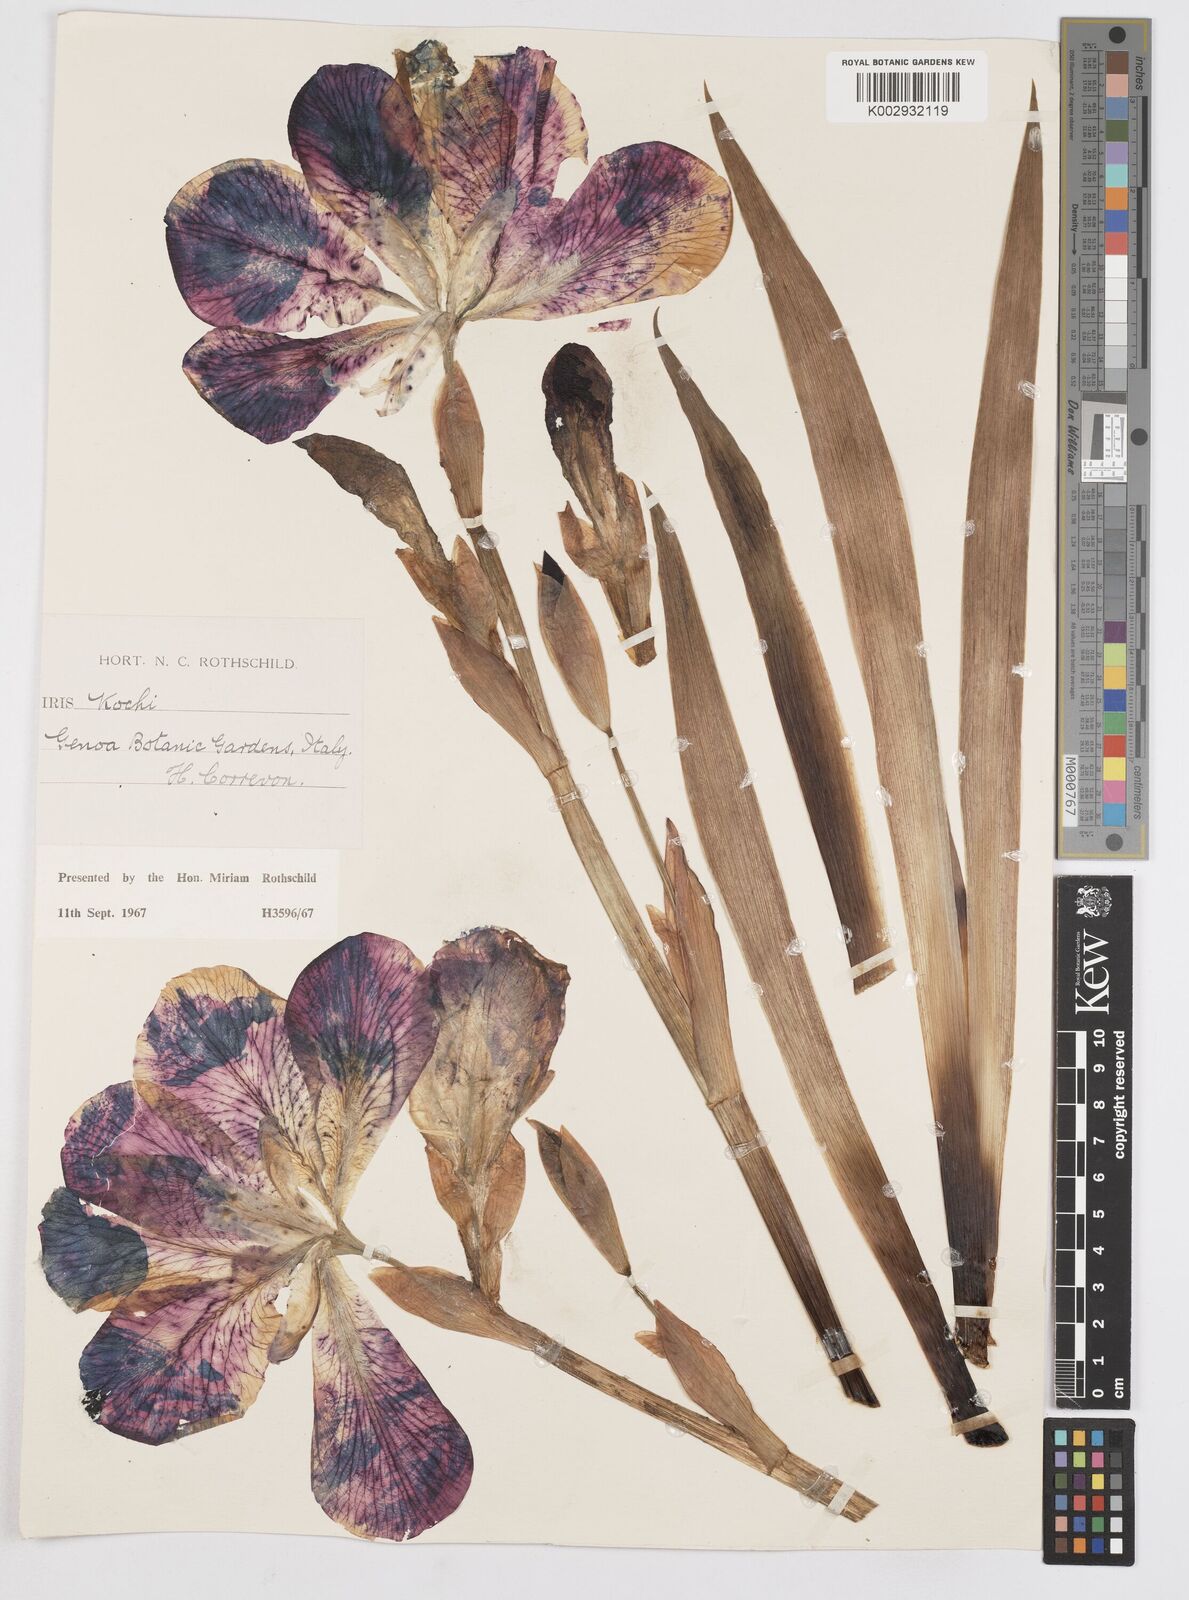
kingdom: Plantae
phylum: Tracheophyta
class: Liliopsida
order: Asparagales
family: Iridaceae
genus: Iris
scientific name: Iris kochii
